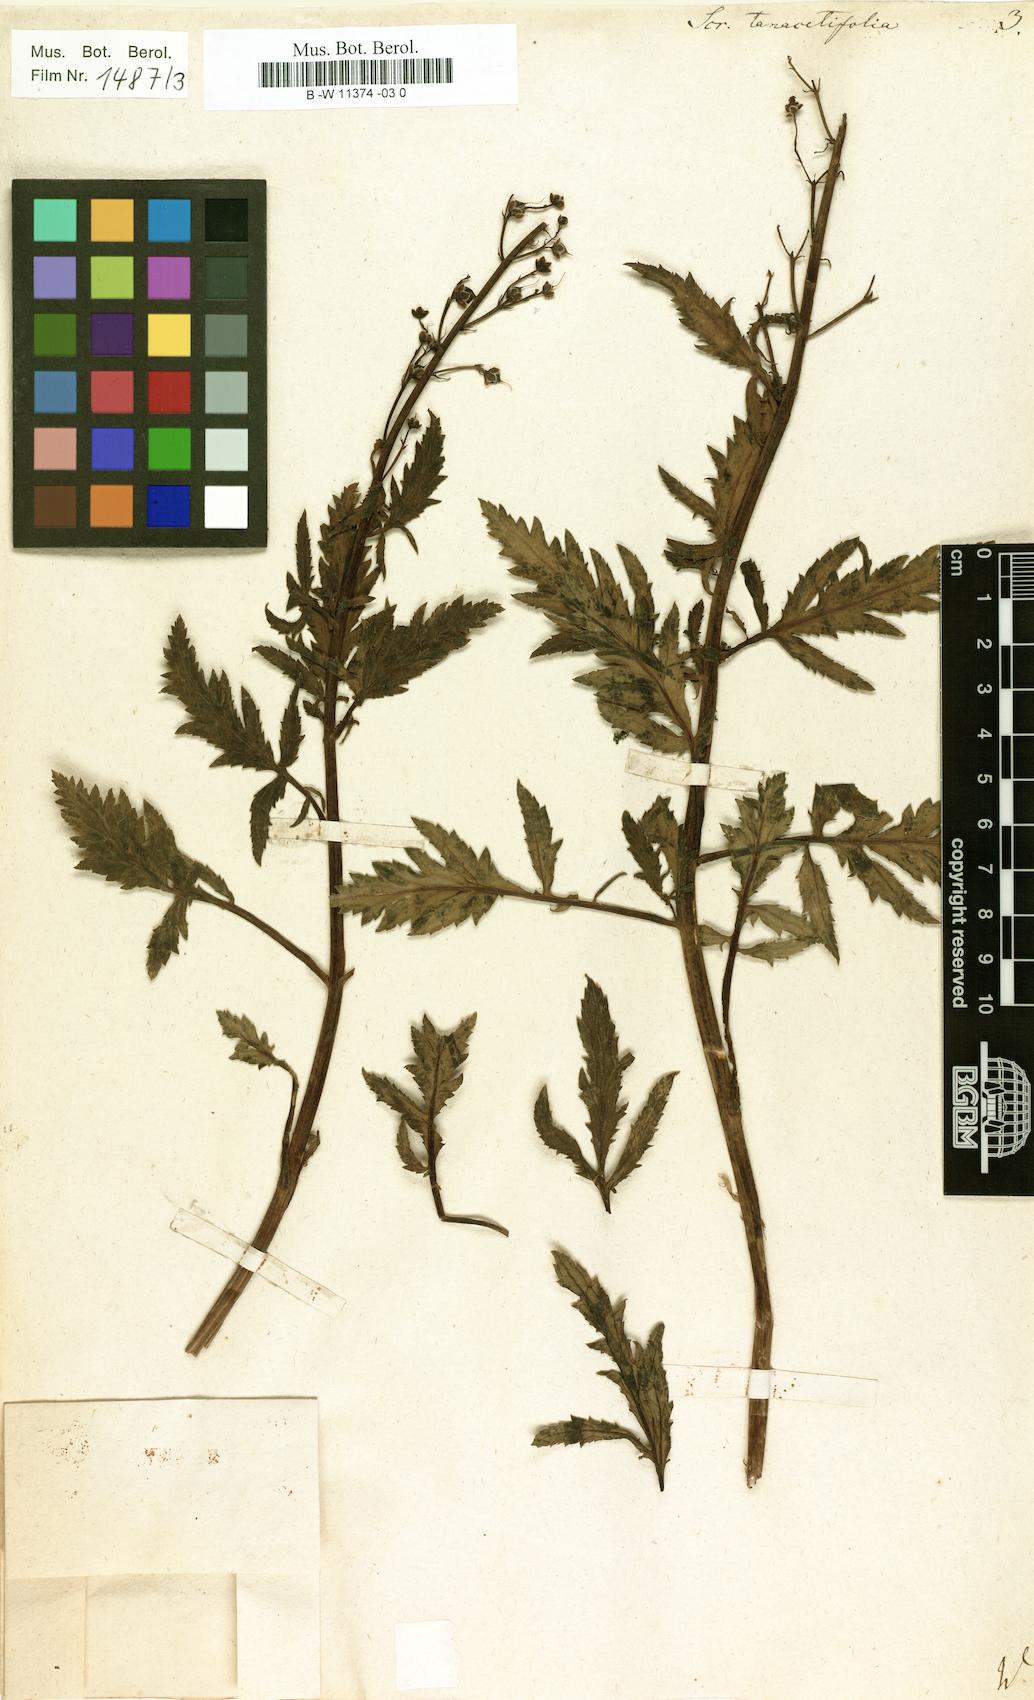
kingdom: Plantae
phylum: Tracheophyta
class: Magnoliopsida
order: Lamiales
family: Scrophulariaceae
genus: Scrophularia
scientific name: Scrophularia tanacetifolia
